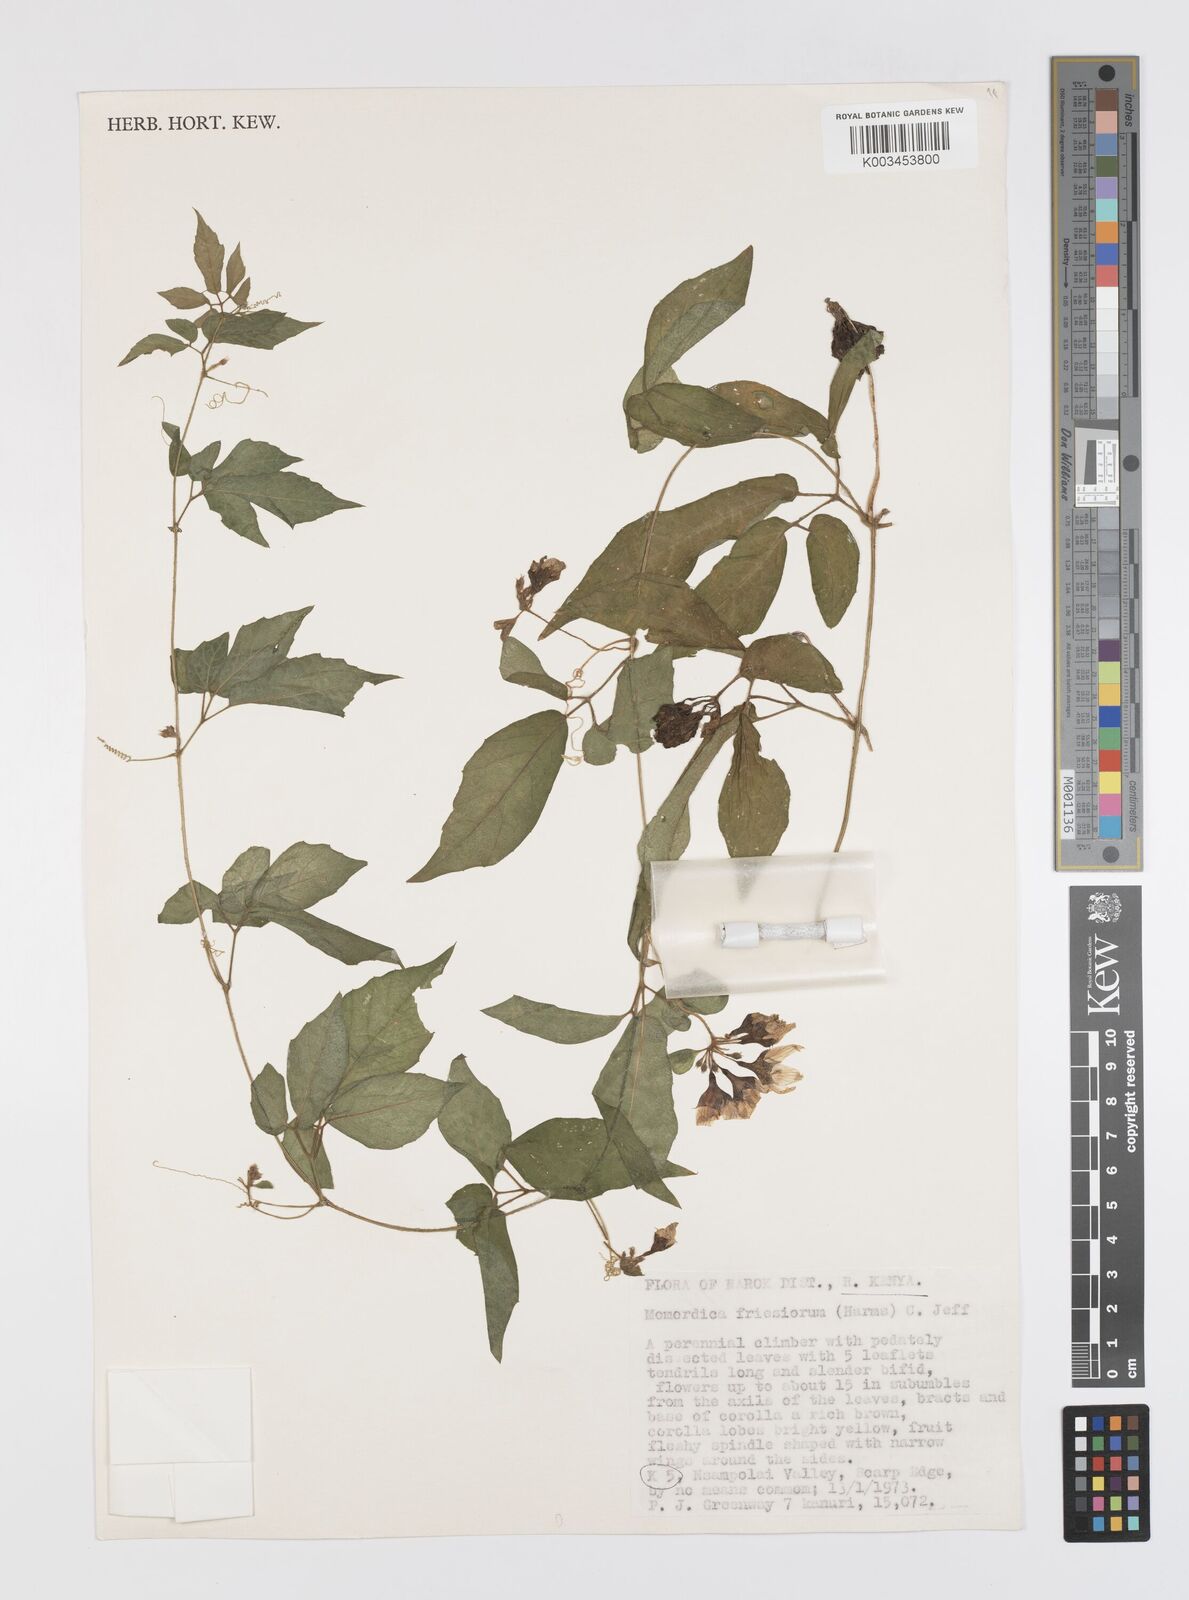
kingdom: Plantae
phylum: Tracheophyta
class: Magnoliopsida
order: Cucurbitales
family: Cucurbitaceae
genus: Momordica
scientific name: Momordica friesiorum
